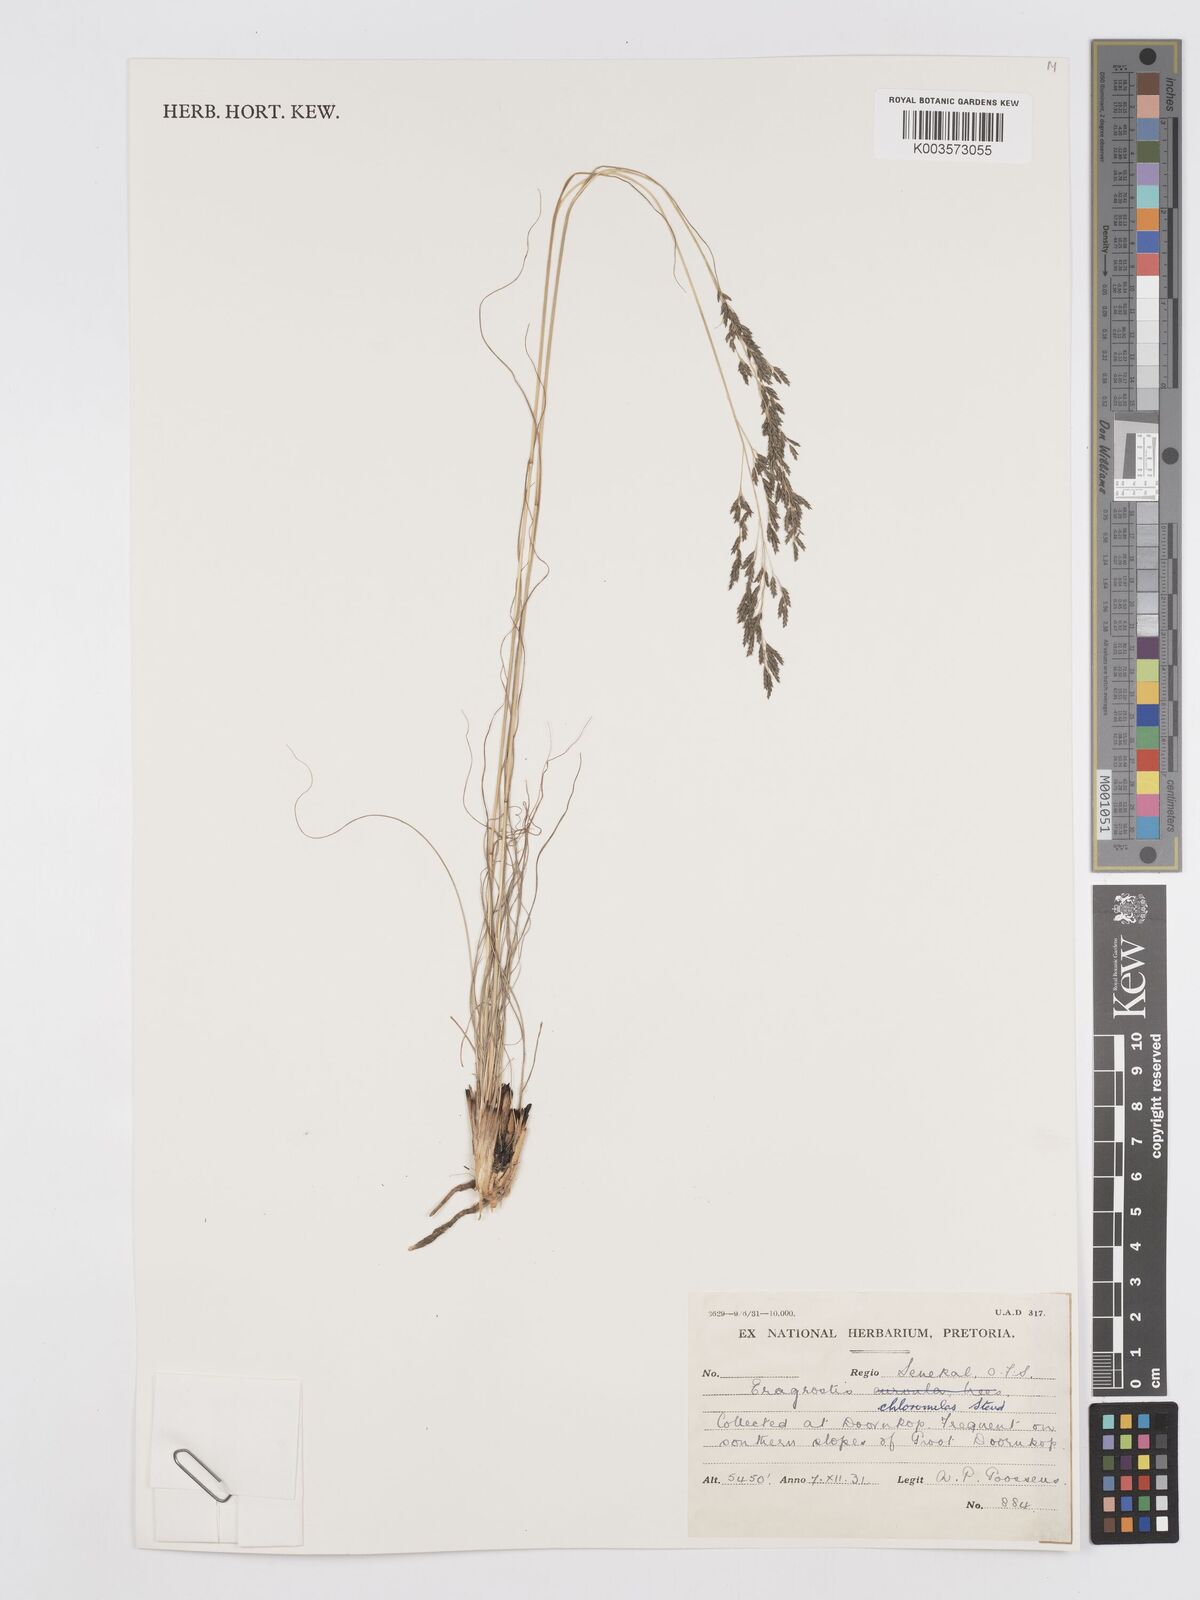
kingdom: Plantae
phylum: Tracheophyta
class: Liliopsida
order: Poales
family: Poaceae
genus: Eragrostis
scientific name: Eragrostis curvula
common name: African love-grass
